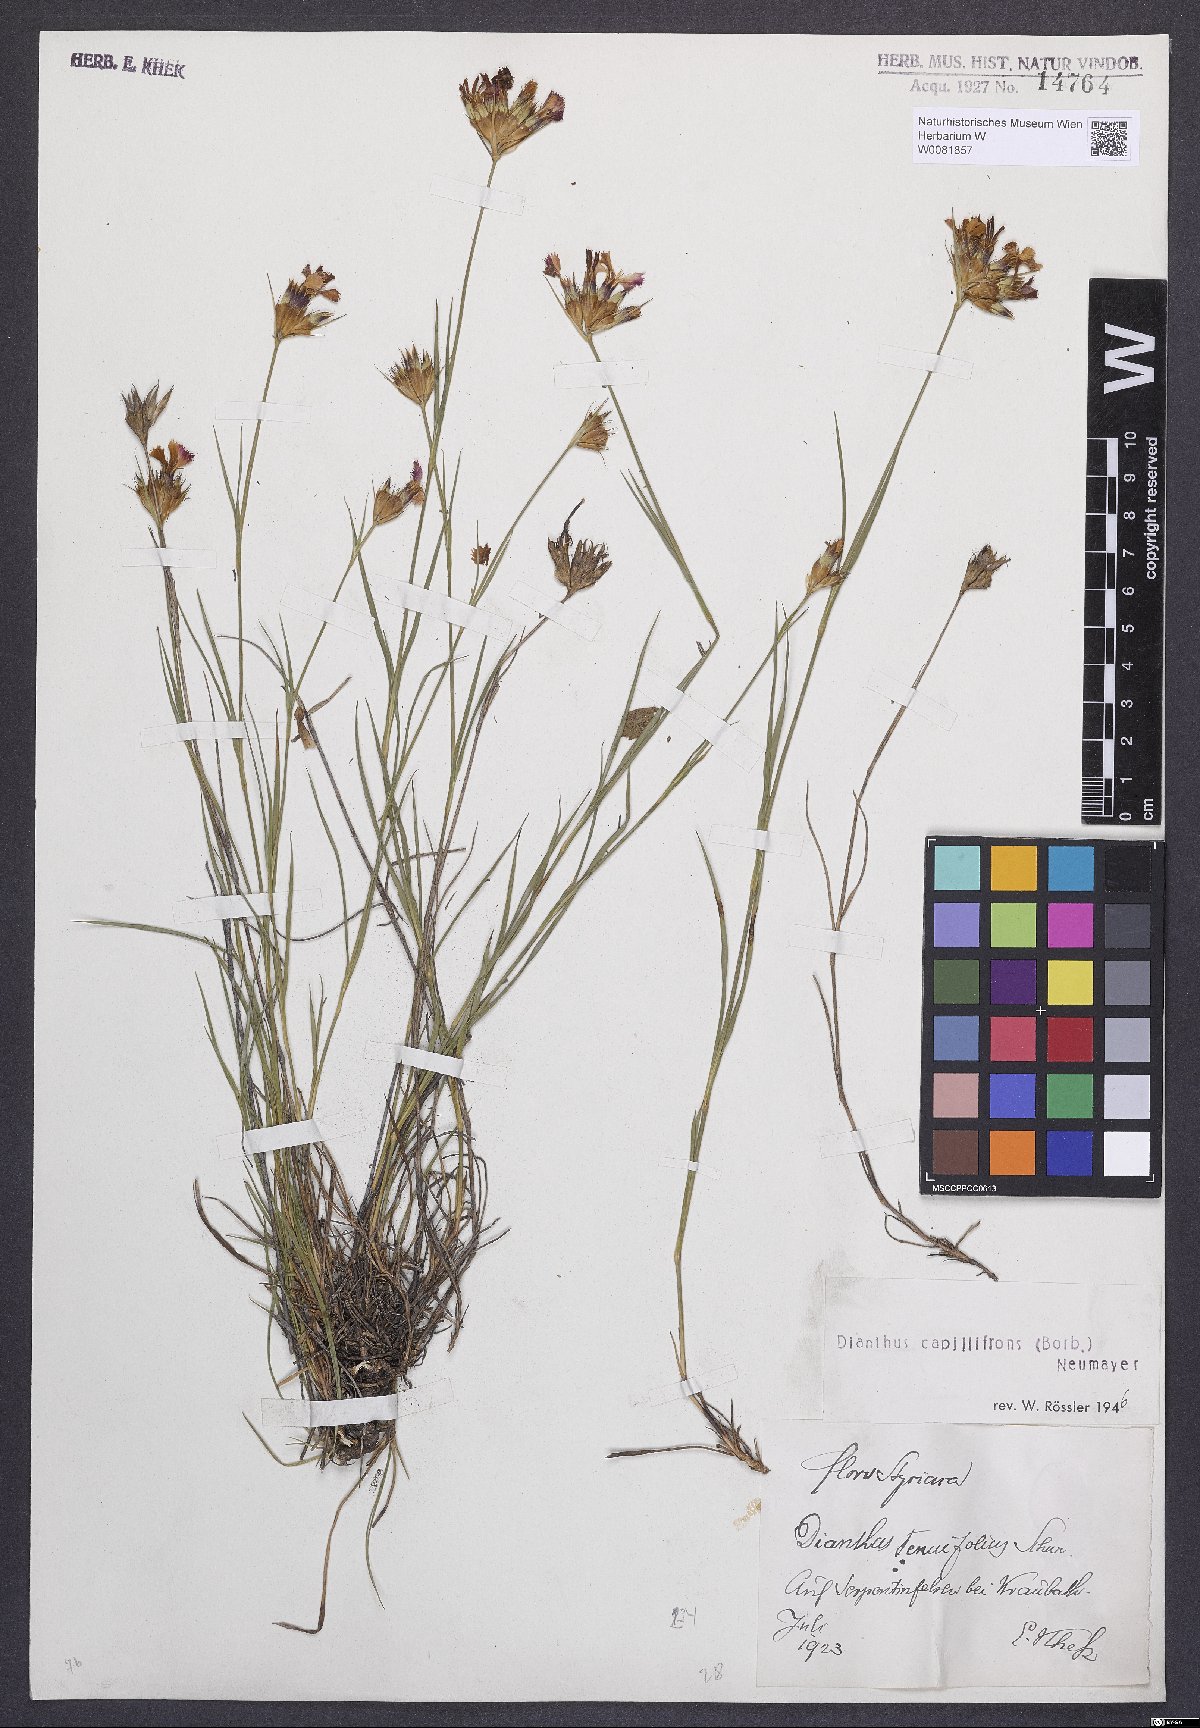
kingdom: Plantae
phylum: Tracheophyta
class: Magnoliopsida
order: Caryophyllales
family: Caryophyllaceae
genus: Dianthus
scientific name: Dianthus carthusianorum
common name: Carthusian pink
